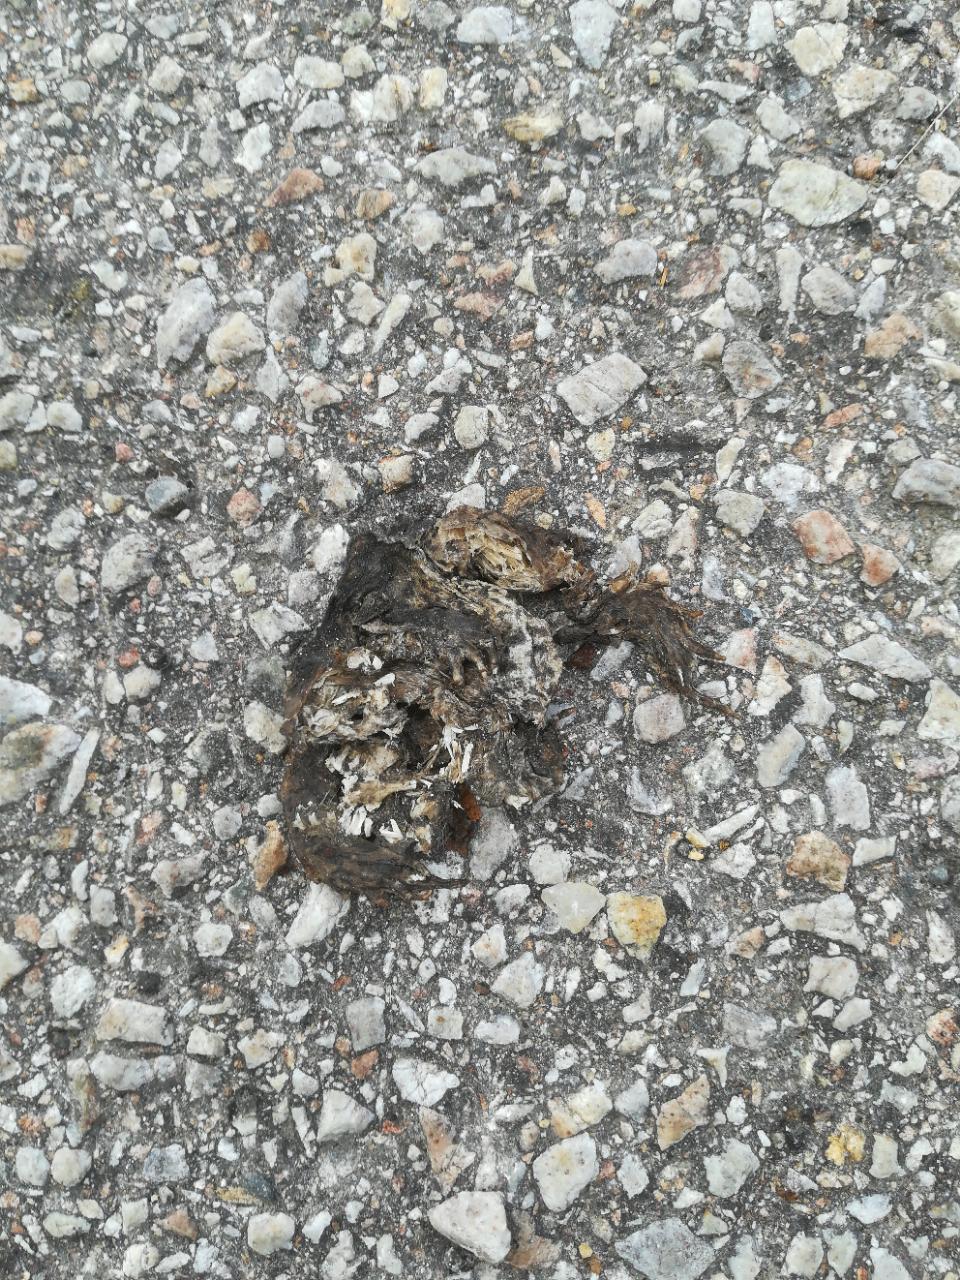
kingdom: Animalia
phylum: Chordata
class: Amphibia
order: Anura
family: Bufonidae
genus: Bufo
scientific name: Bufo bufo
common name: Common toad
